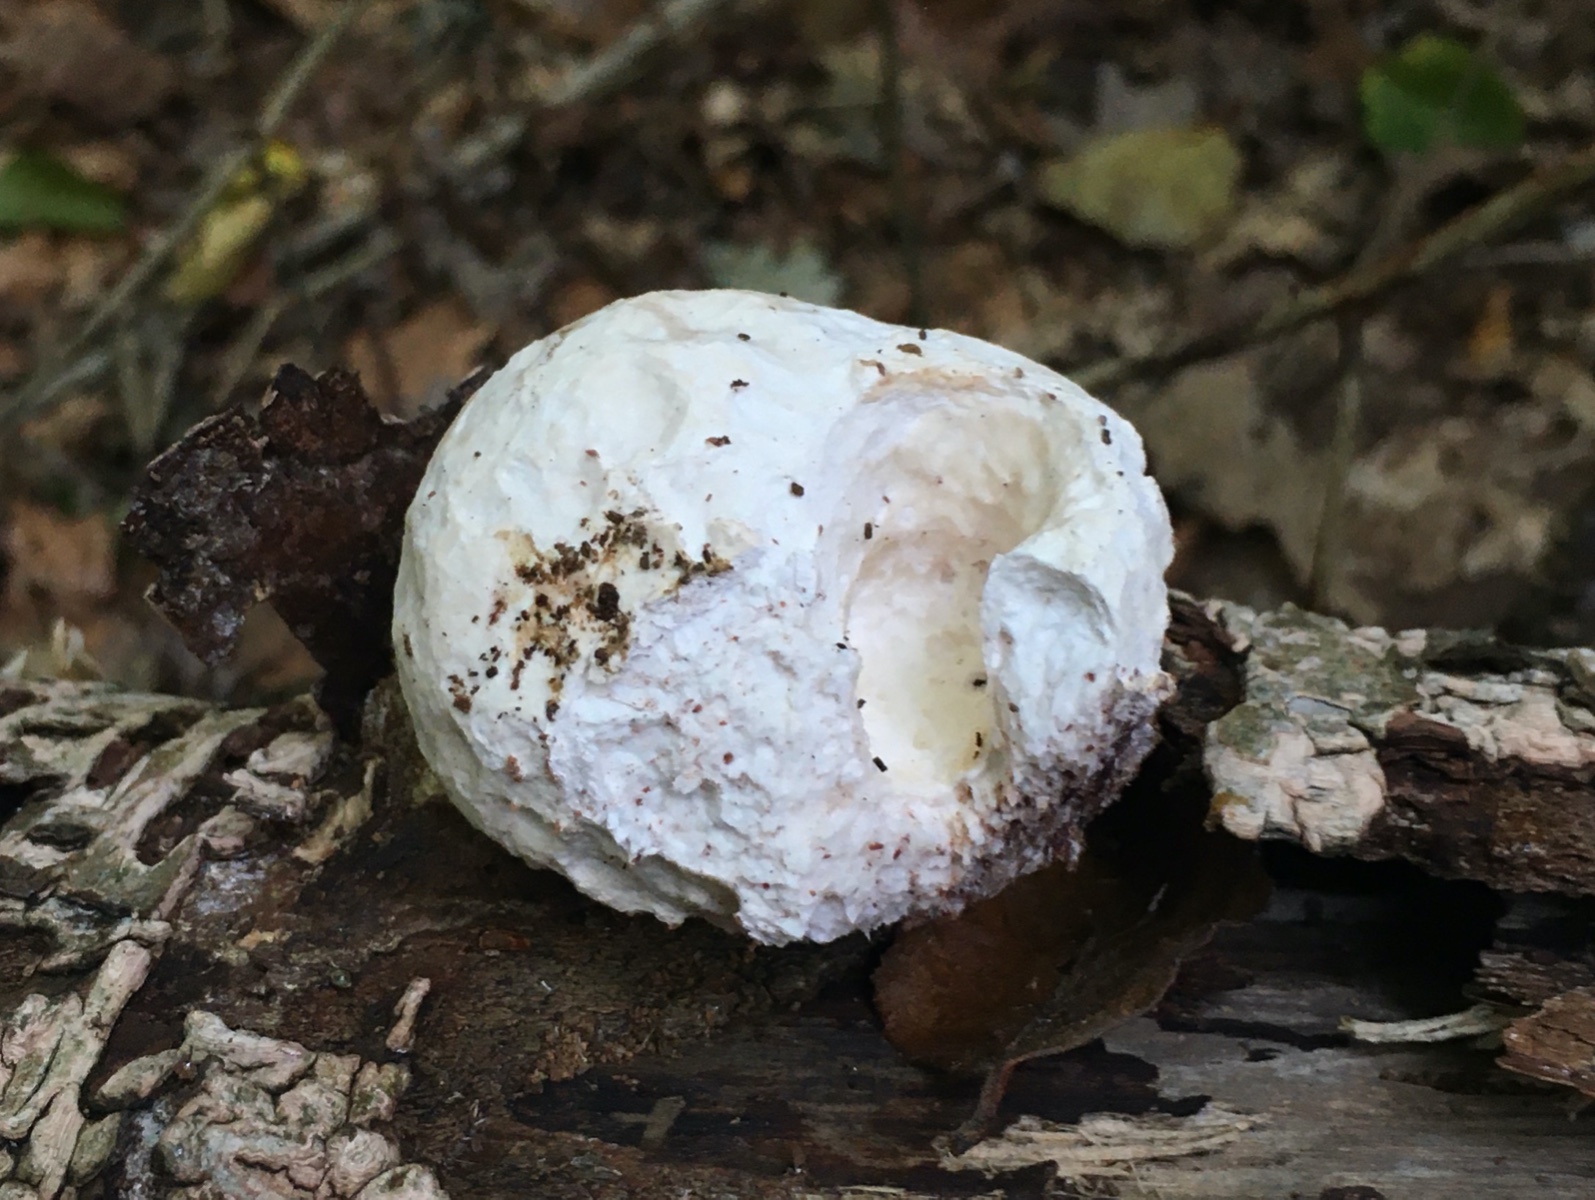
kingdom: Fungi
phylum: Basidiomycota
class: Agaricomycetes
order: Polyporales
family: Fomitopsidaceae
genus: Fomitopsis
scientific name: Fomitopsis betulina
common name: birkeporesvamp
